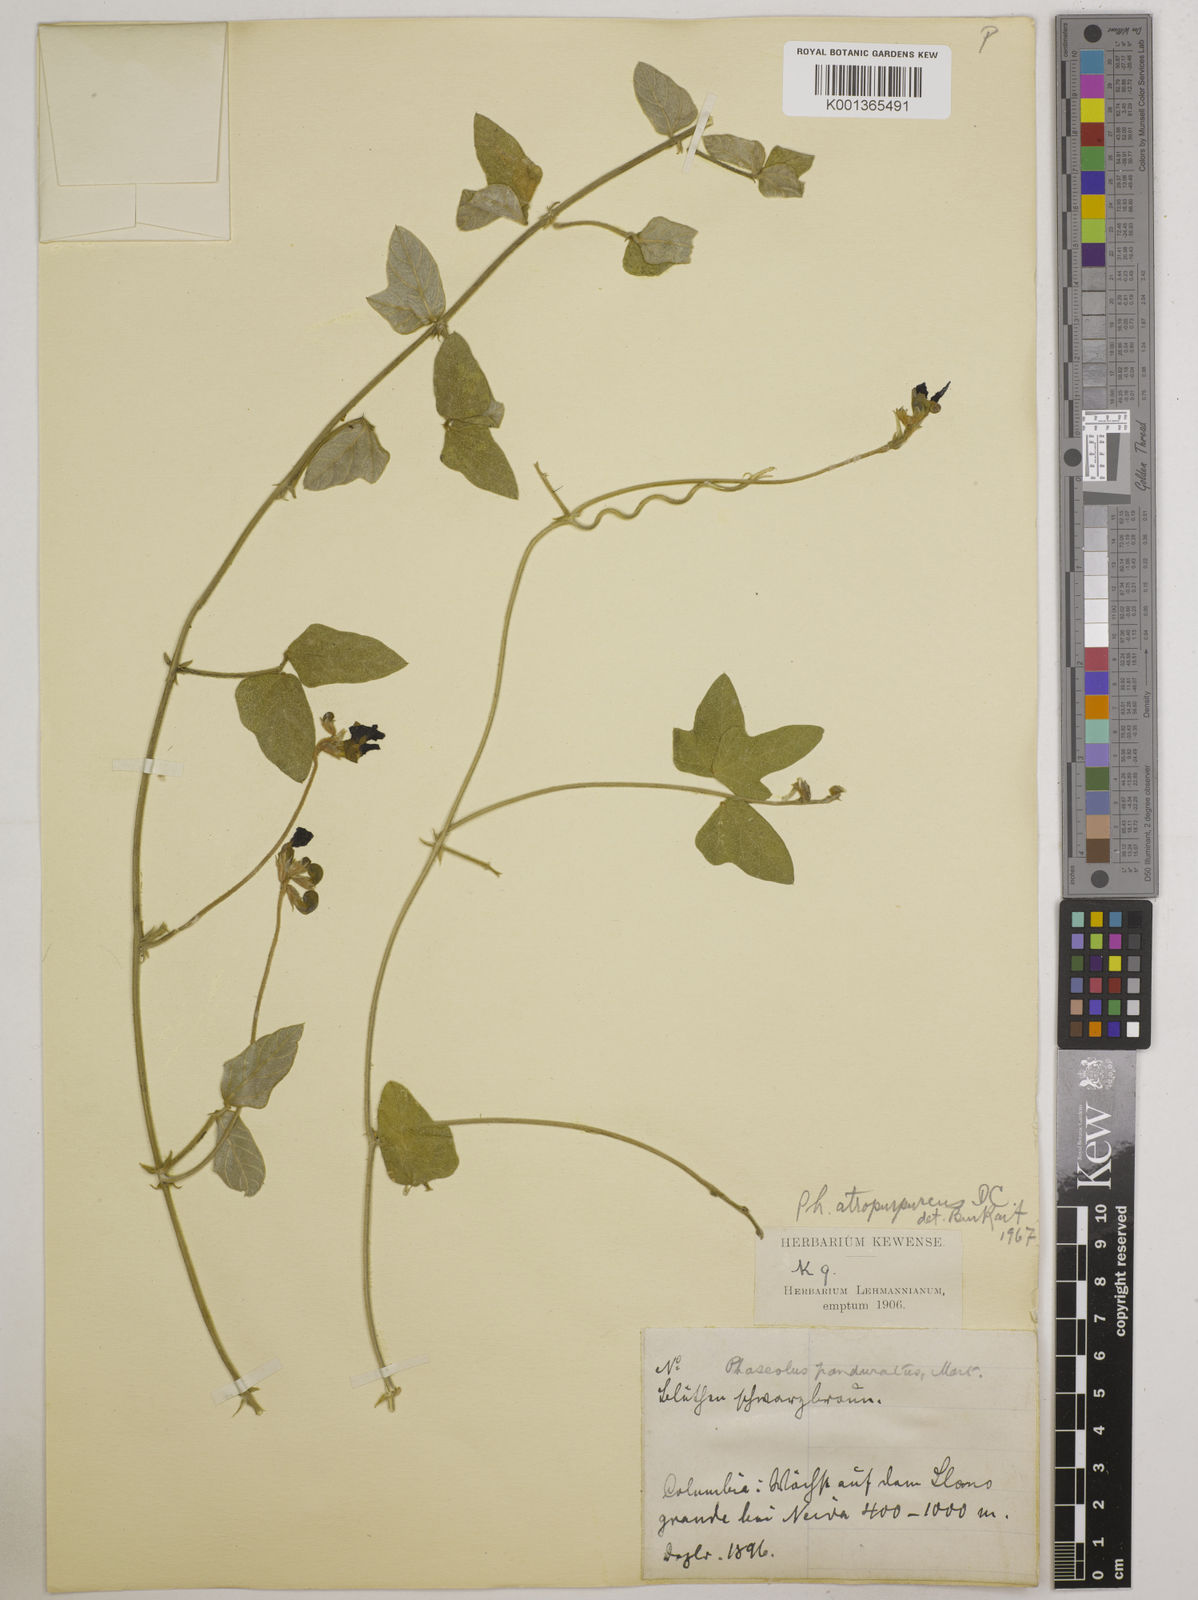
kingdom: Plantae
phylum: Tracheophyta
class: Magnoliopsida
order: Fabales
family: Fabaceae
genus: Macroptilium
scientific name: Macroptilium atropurpureum
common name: Purple bushbean
